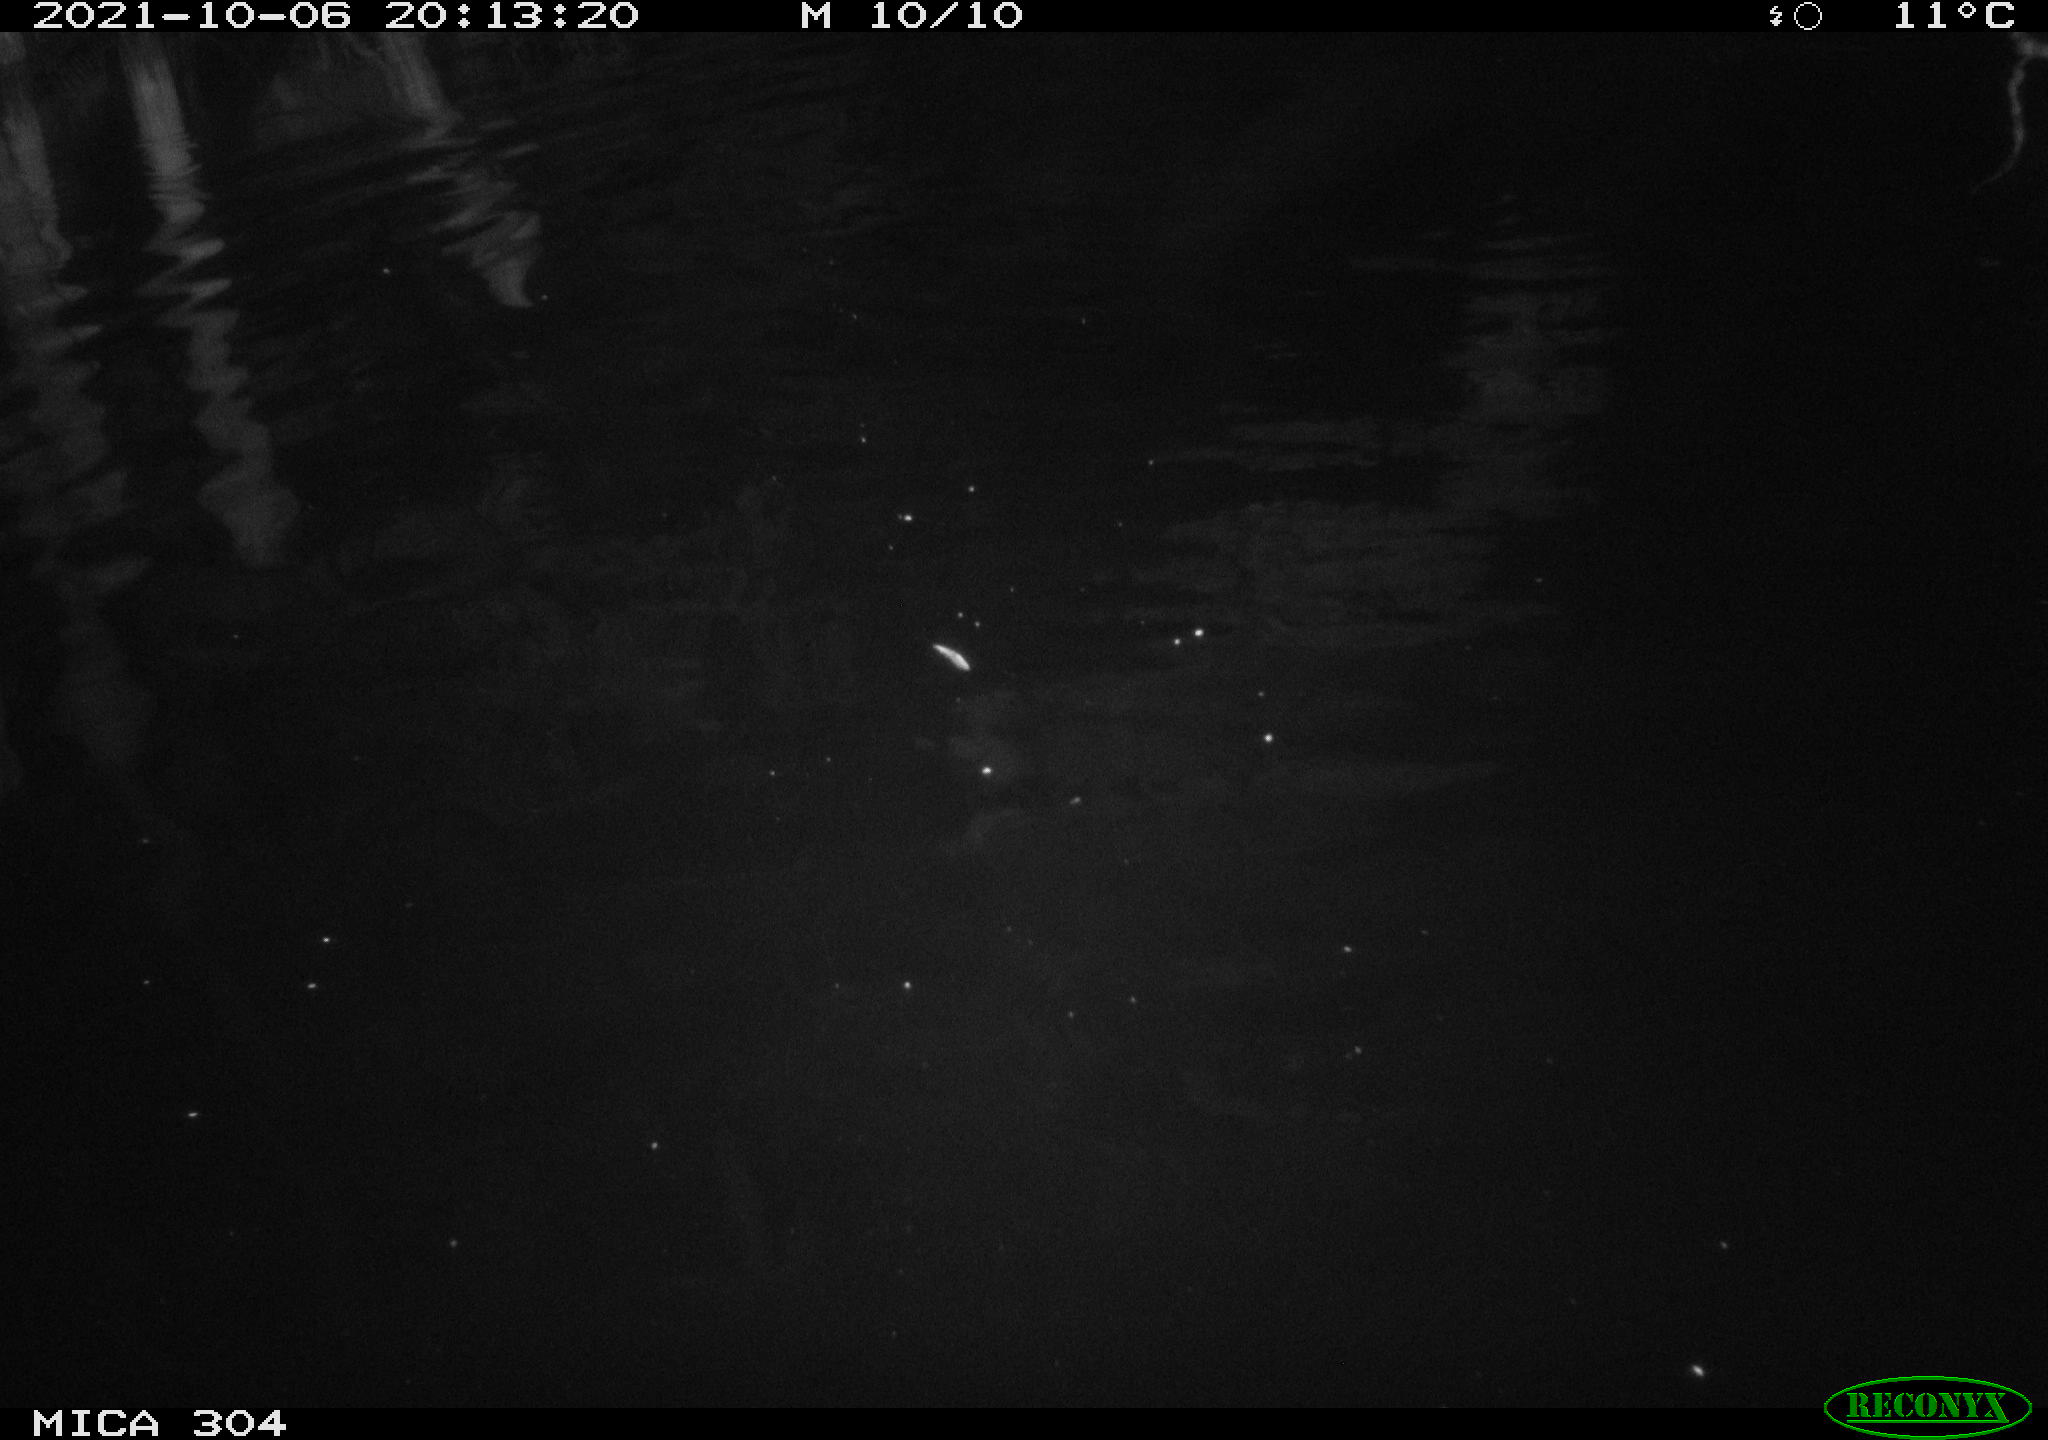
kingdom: Animalia
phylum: Chordata
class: Mammalia
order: Rodentia
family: Cricetidae
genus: Ondatra
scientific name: Ondatra zibethicus
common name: Muskrat
